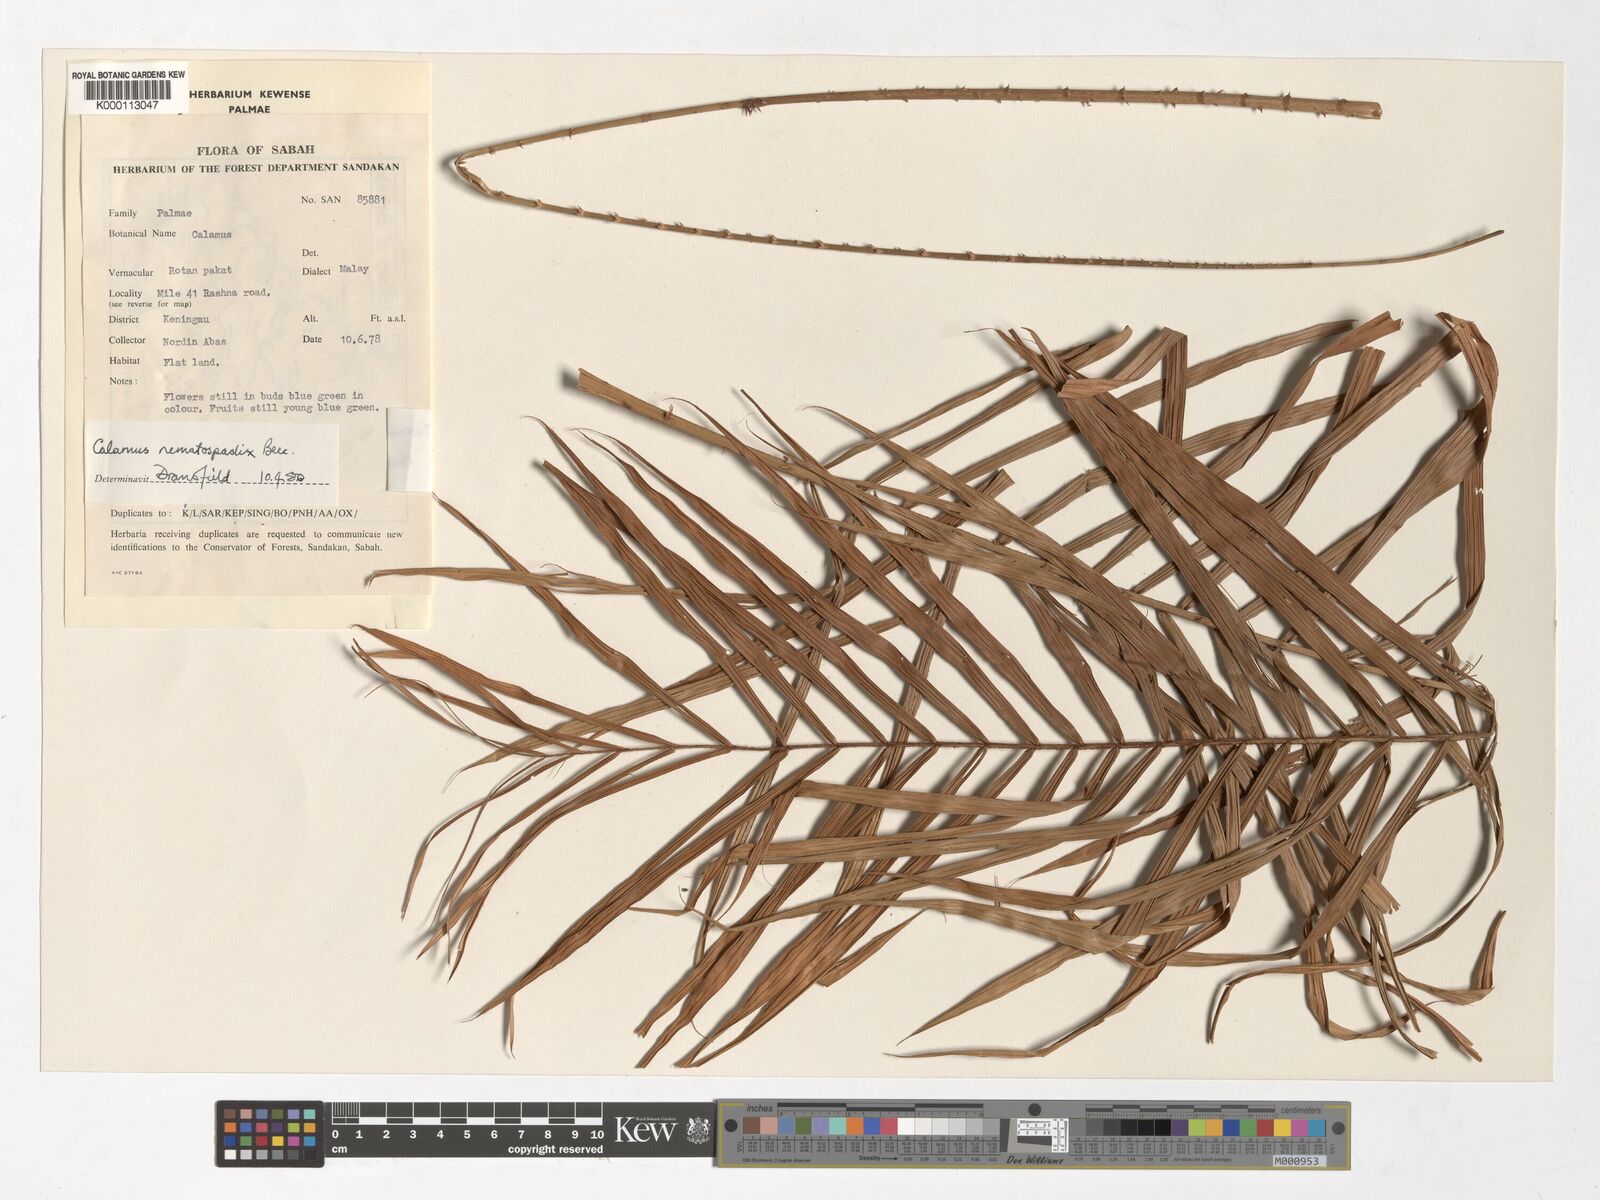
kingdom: Plantae
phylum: Tracheophyta
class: Liliopsida
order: Arecales
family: Arecaceae
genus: Calamus
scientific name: Calamus comptus
